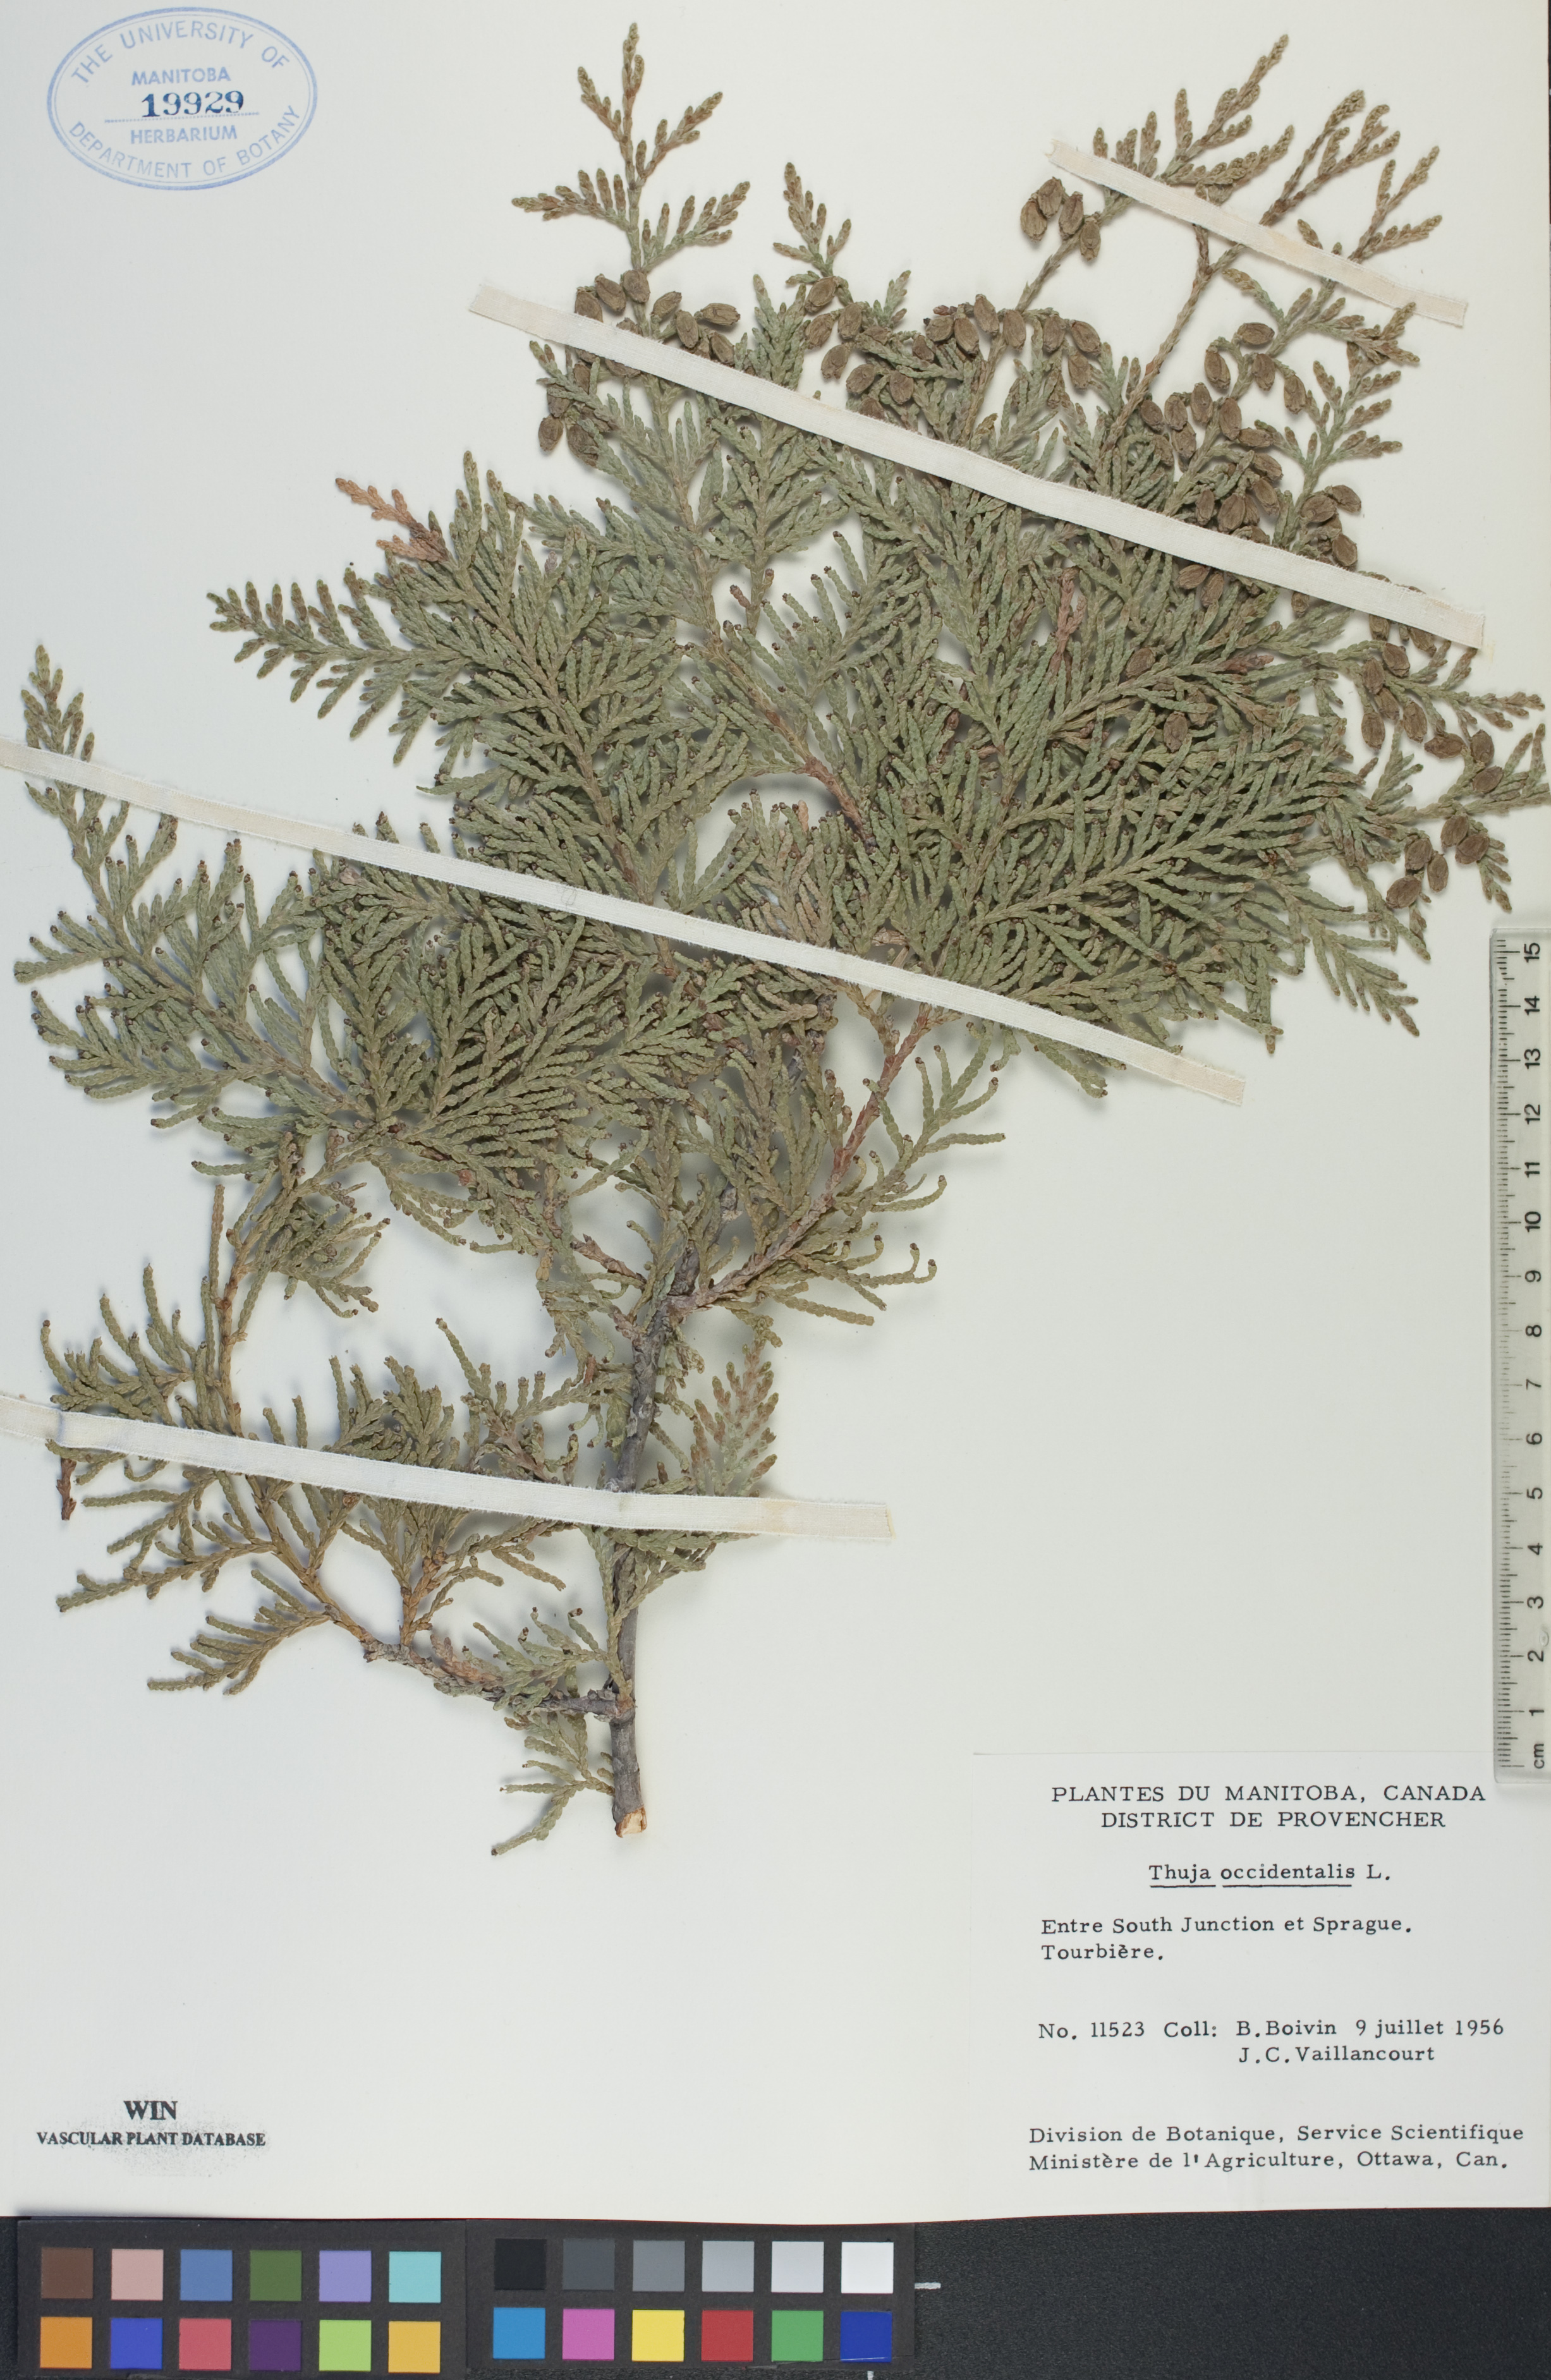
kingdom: Plantae
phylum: Tracheophyta
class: Pinopsida
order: Pinales
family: Cupressaceae
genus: Thuja
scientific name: Thuja occidentalis
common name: Northern white-cedar
